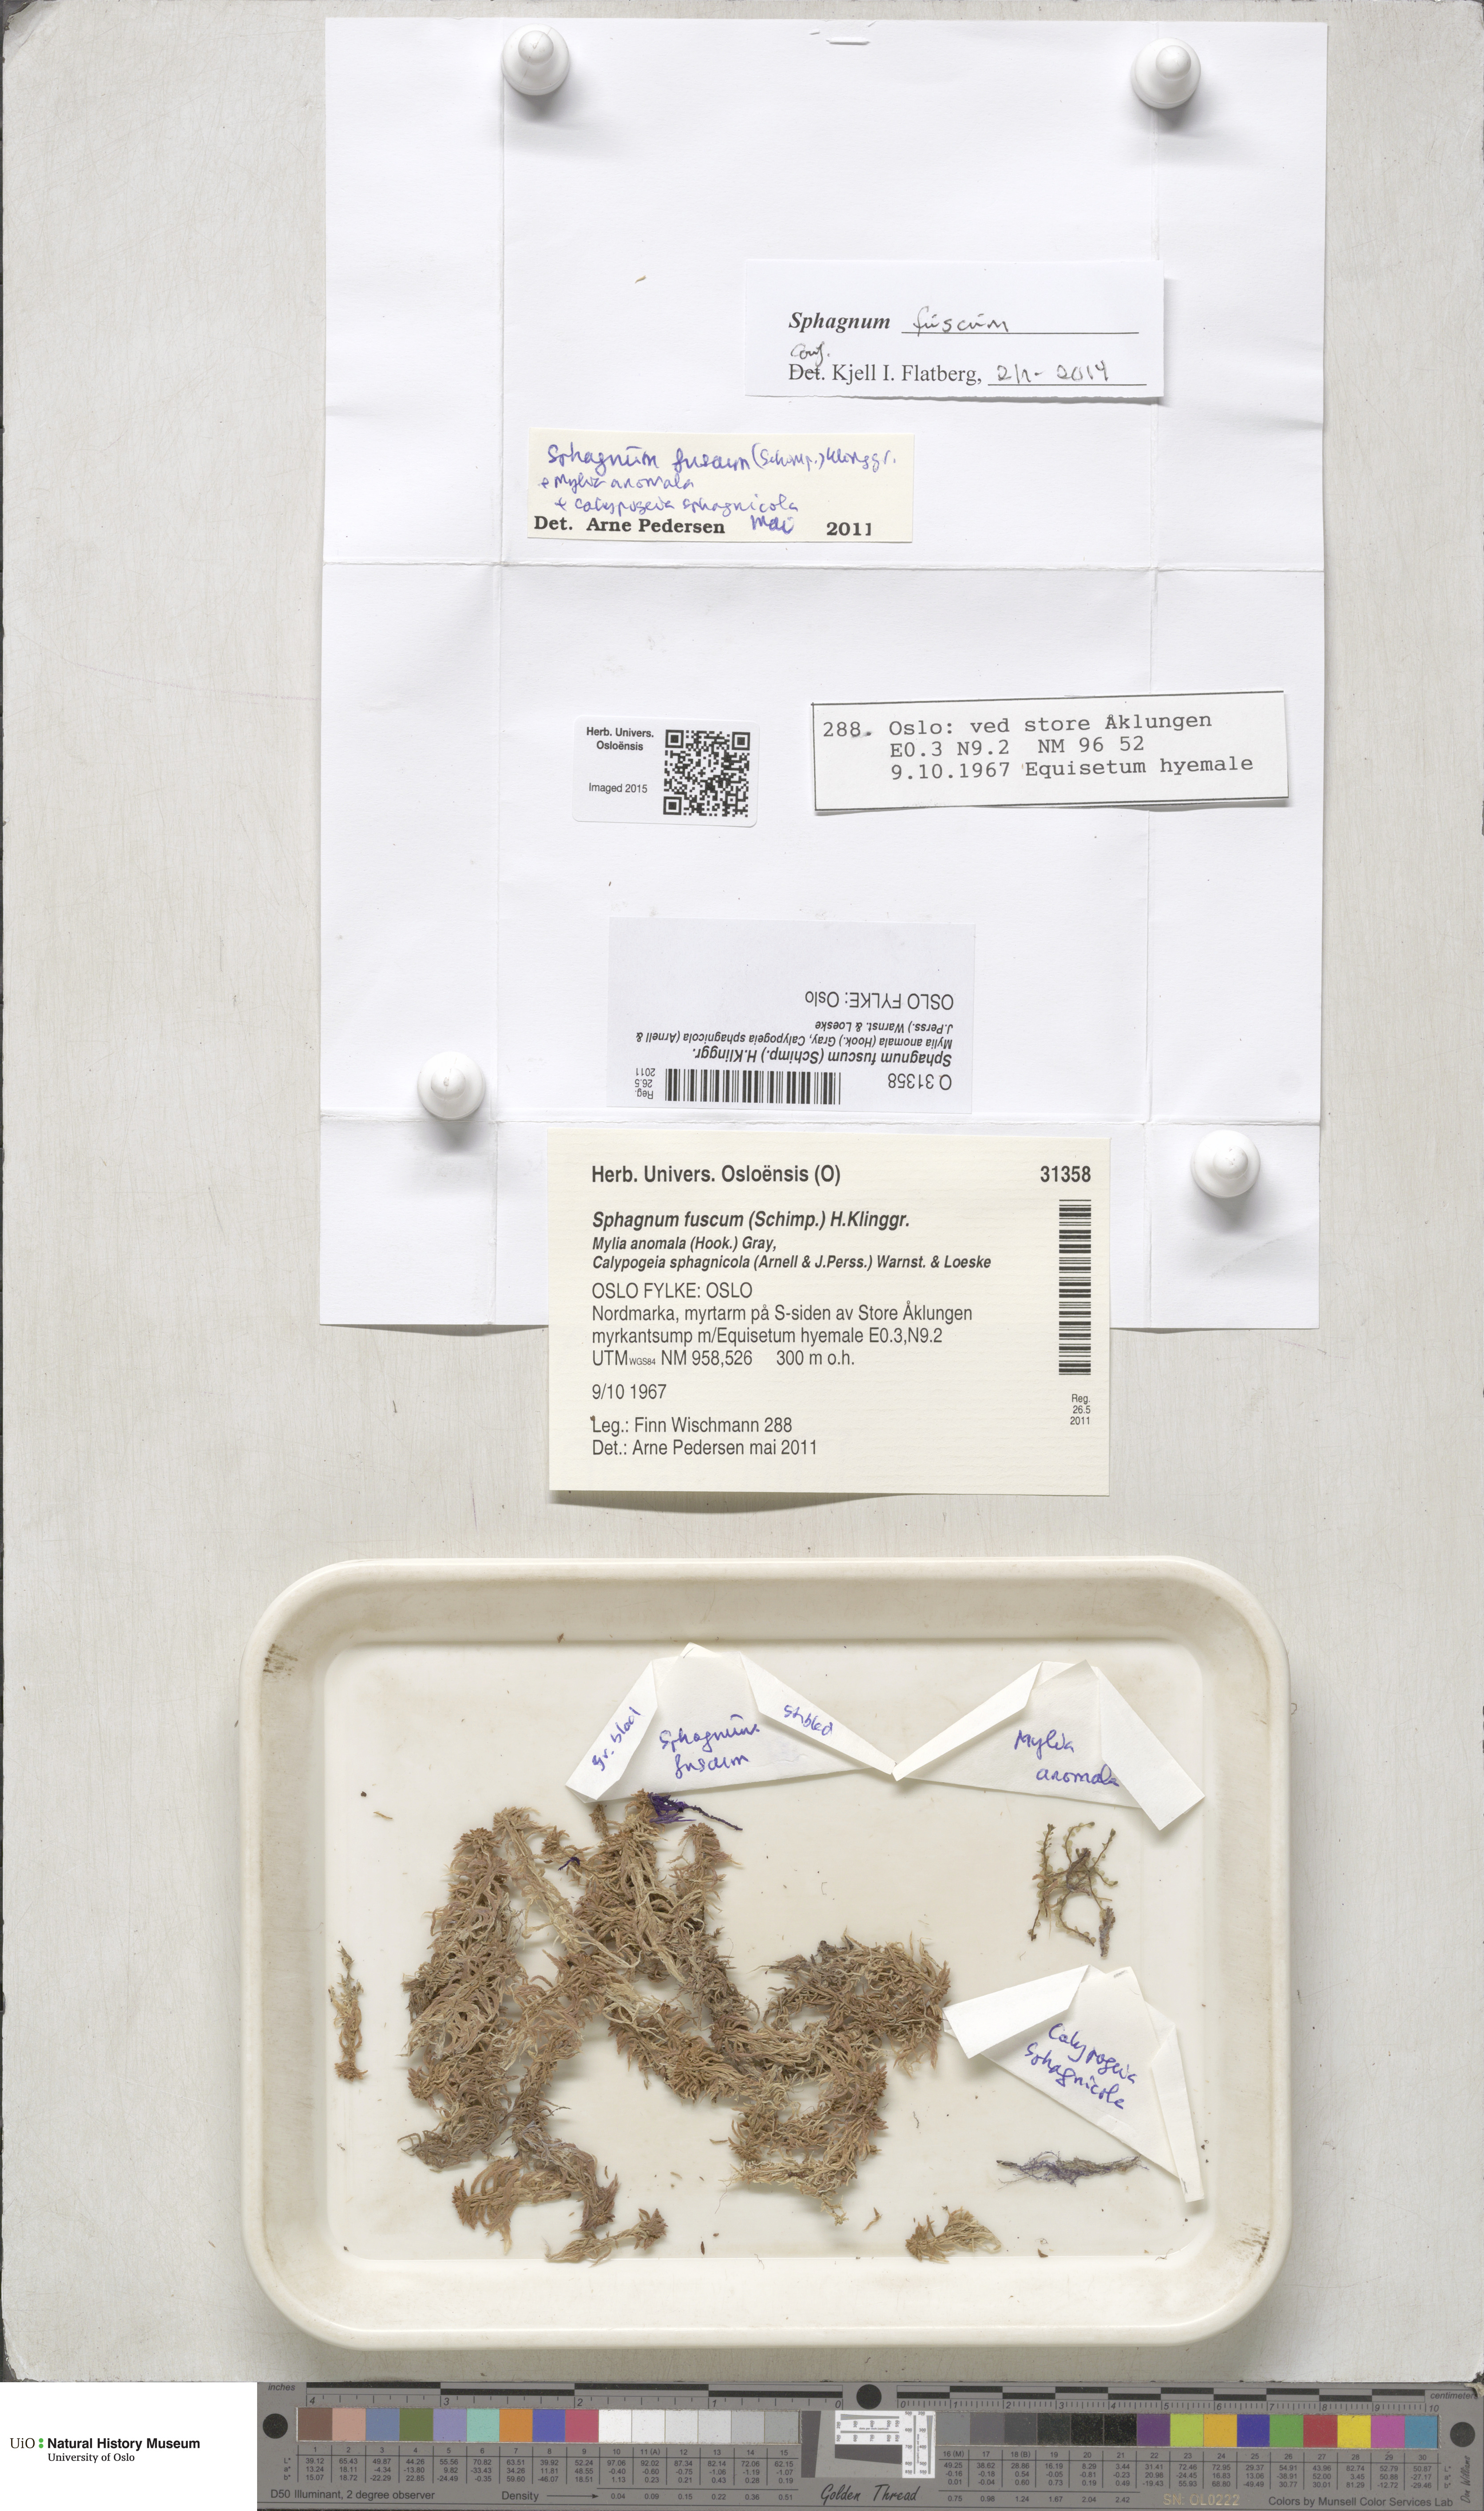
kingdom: Plantae
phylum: Bryophyta
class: Sphagnopsida
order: Sphagnales
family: Sphagnaceae
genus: Sphagnum
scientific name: Sphagnum fuscum
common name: Brown peat moss
